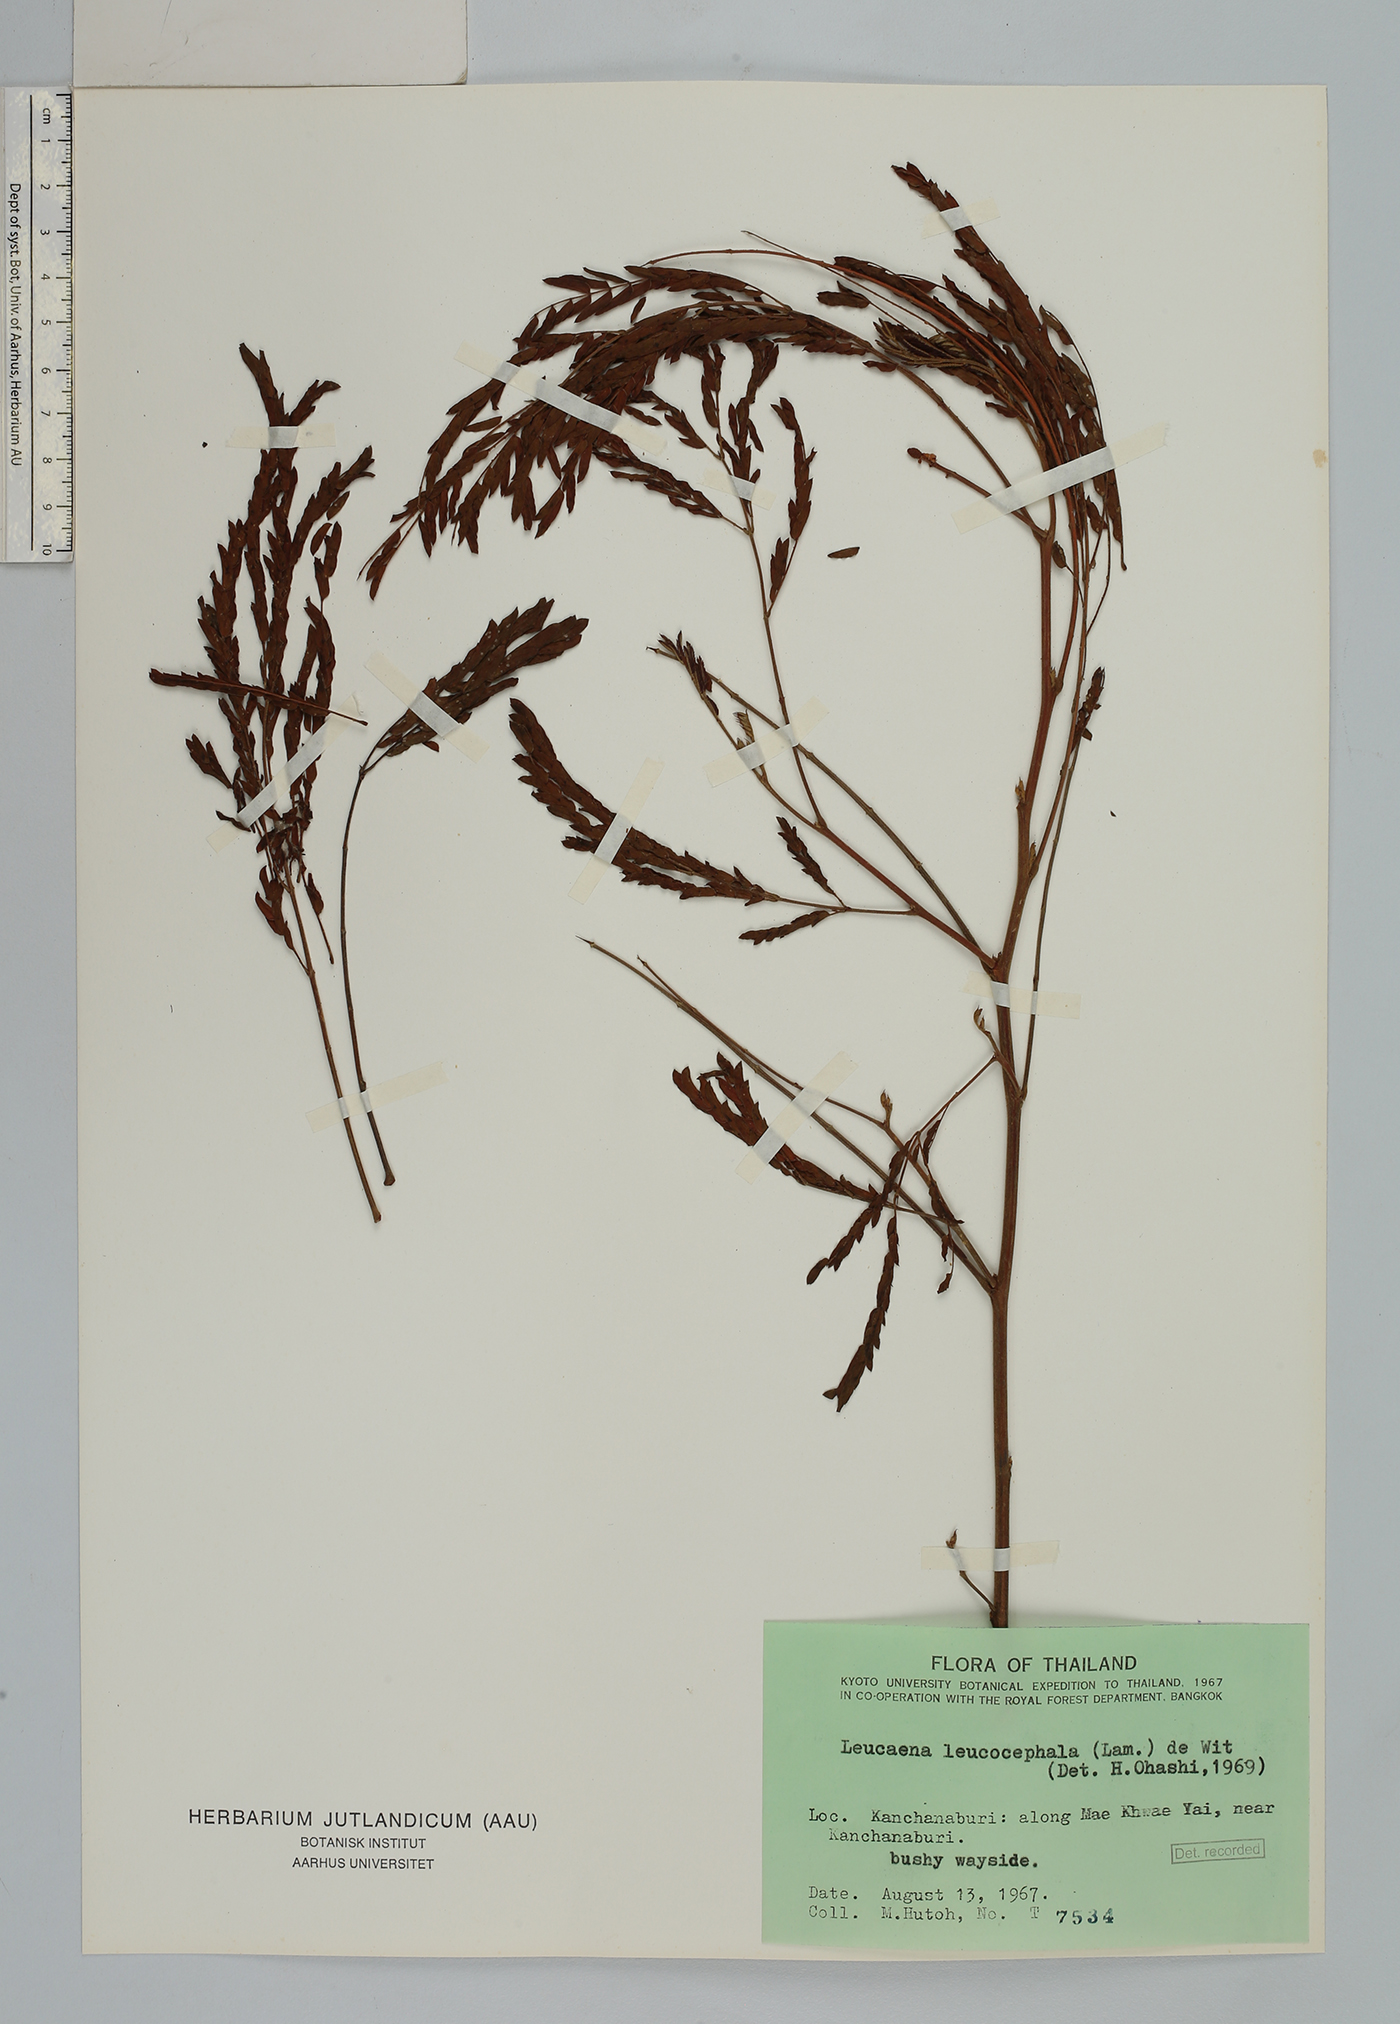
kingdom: Plantae
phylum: Tracheophyta
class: Magnoliopsida
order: Fabales
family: Fabaceae
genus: Leucaena
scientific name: Leucaena leucocephala
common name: White leadtree
